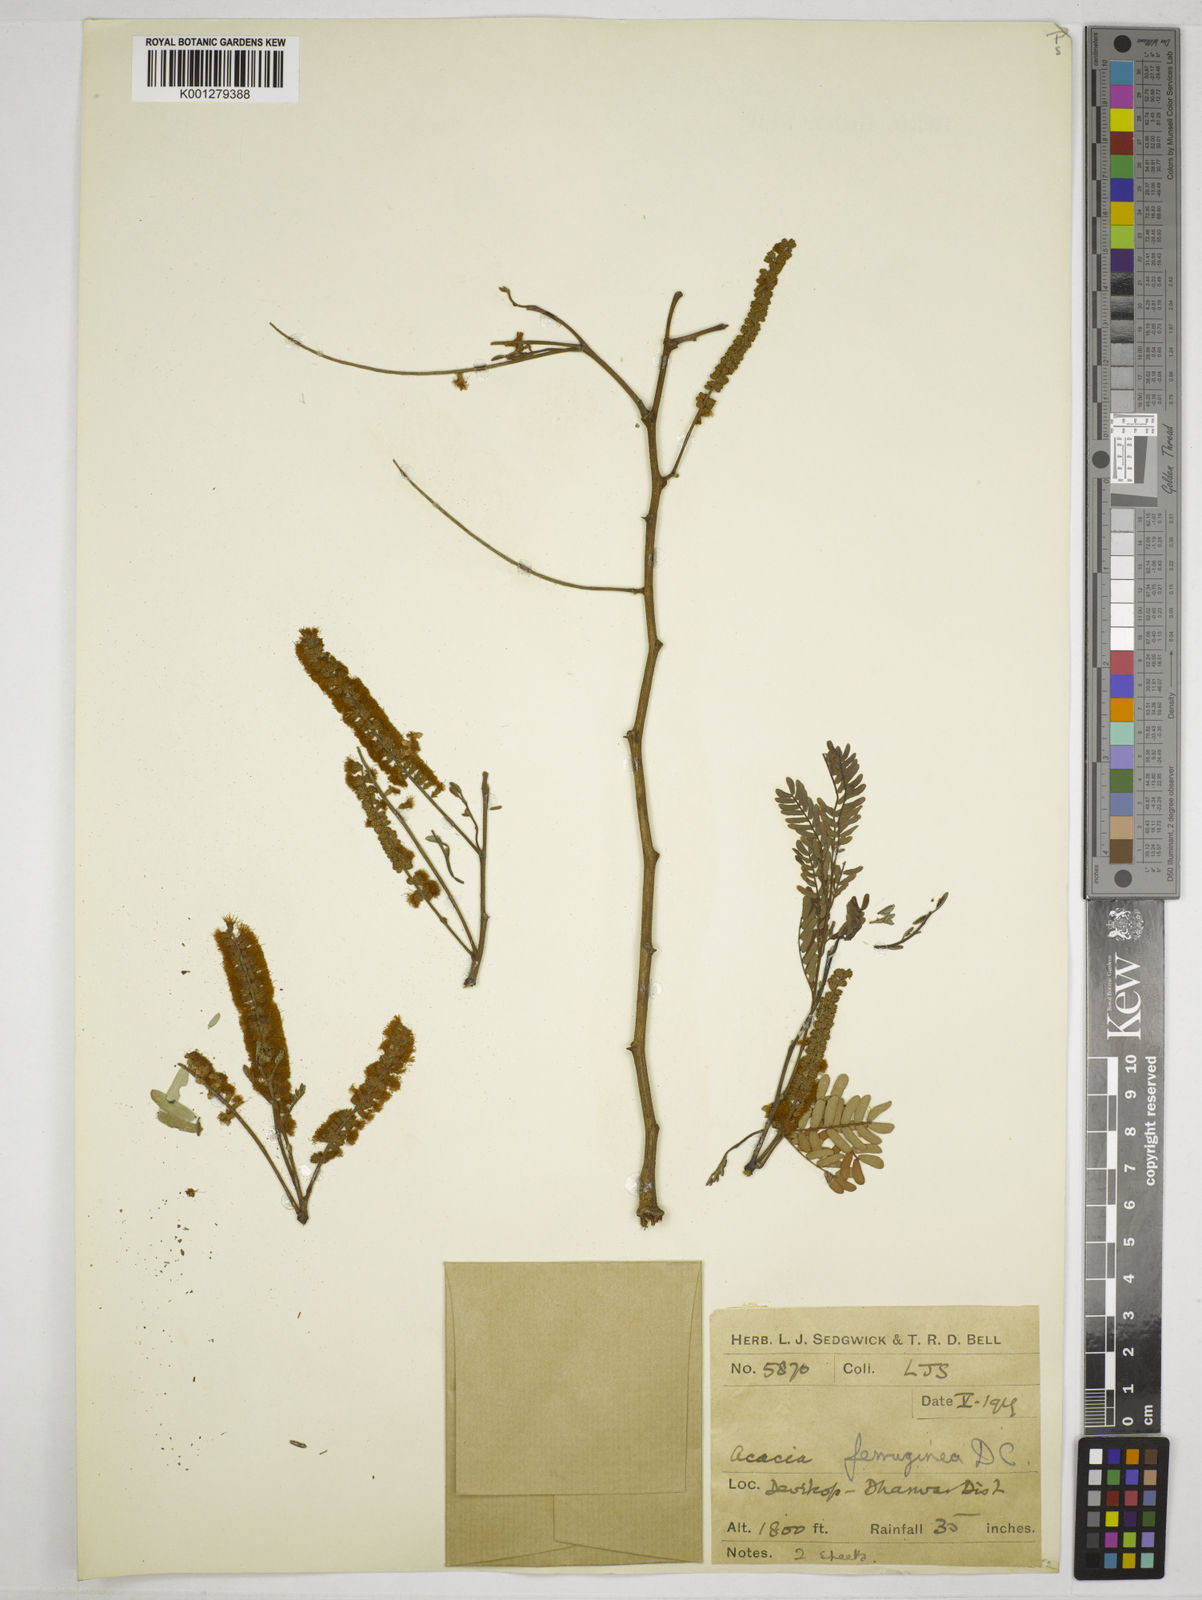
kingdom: Plantae
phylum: Tracheophyta
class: Magnoliopsida
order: Fabales
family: Fabaceae
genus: Senegalia
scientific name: Senegalia ferruginea
